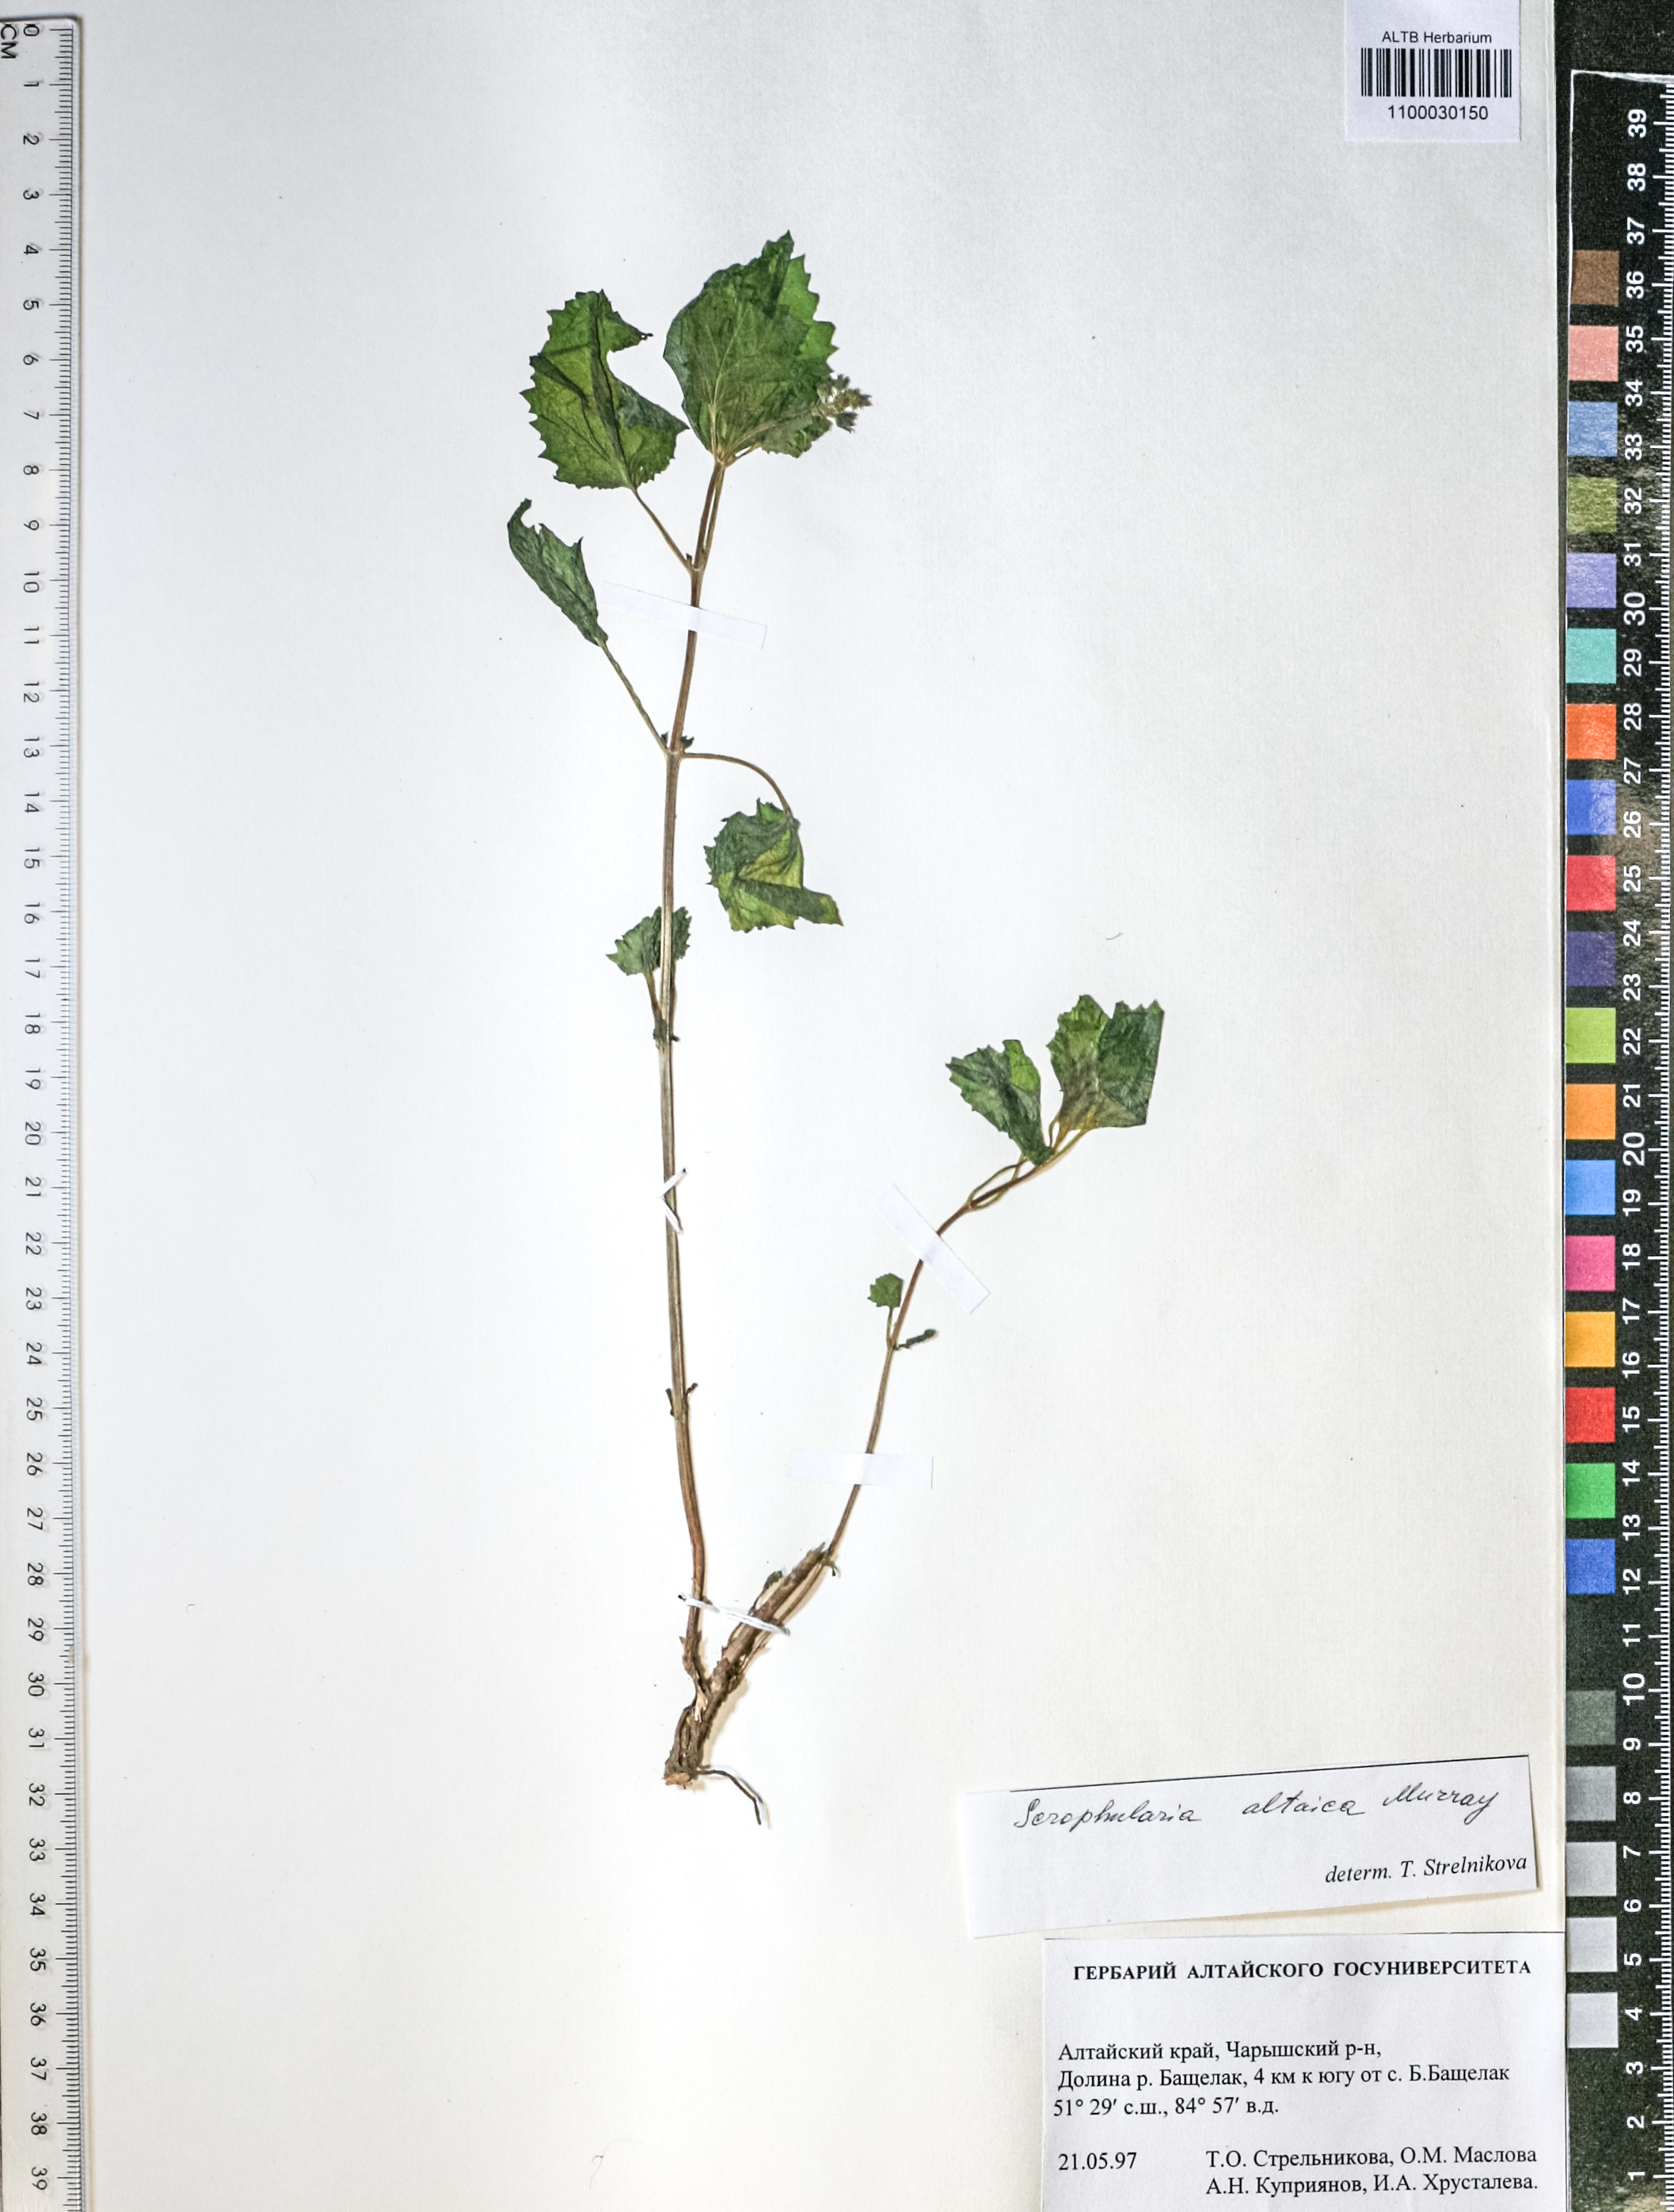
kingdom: Plantae
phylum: Tracheophyta
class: Magnoliopsida
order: Lamiales
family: Scrophulariaceae
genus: Scrophularia
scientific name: Scrophularia altaica
